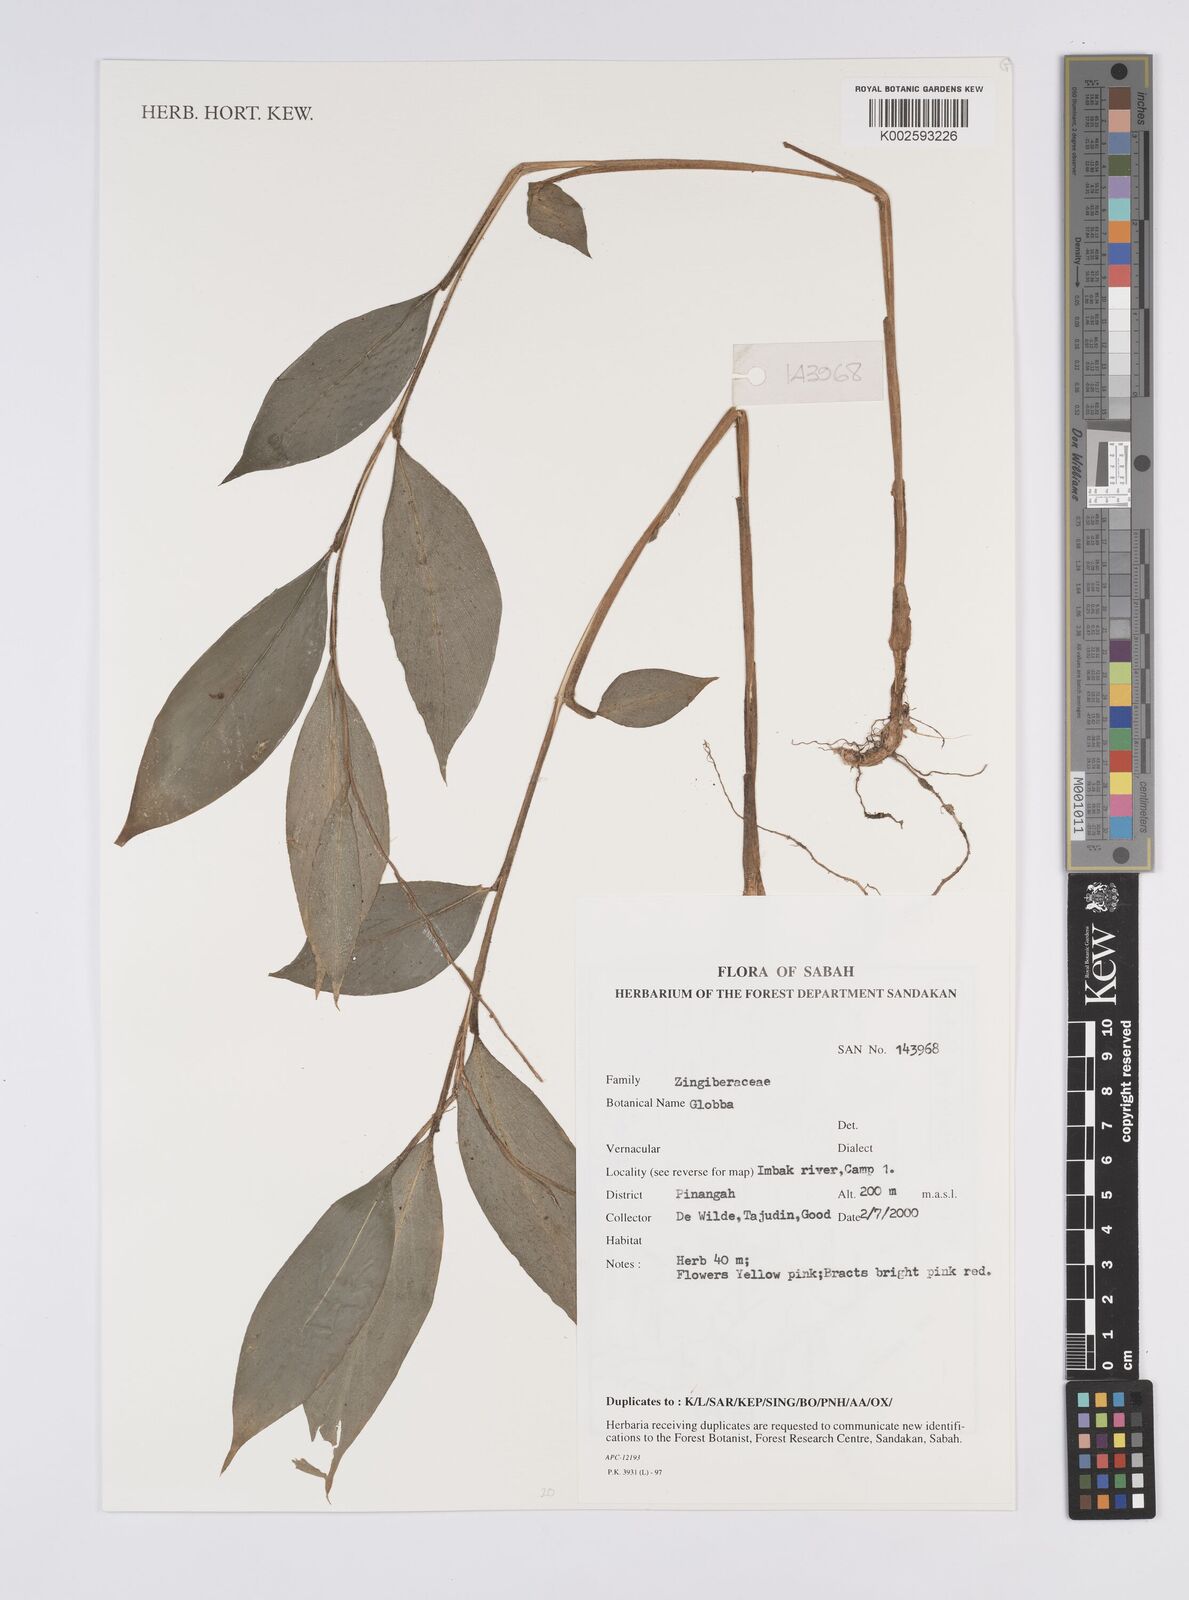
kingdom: Plantae
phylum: Tracheophyta
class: Liliopsida
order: Zingiberales
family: Zingiberaceae
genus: Globba
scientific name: Globba
